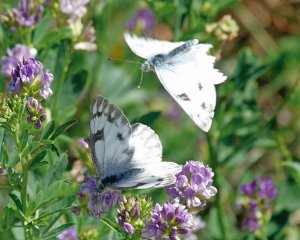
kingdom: Animalia
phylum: Arthropoda
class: Insecta
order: Lepidoptera
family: Pieridae
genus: Pontia
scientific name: Pontia occidentalis
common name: Western White
